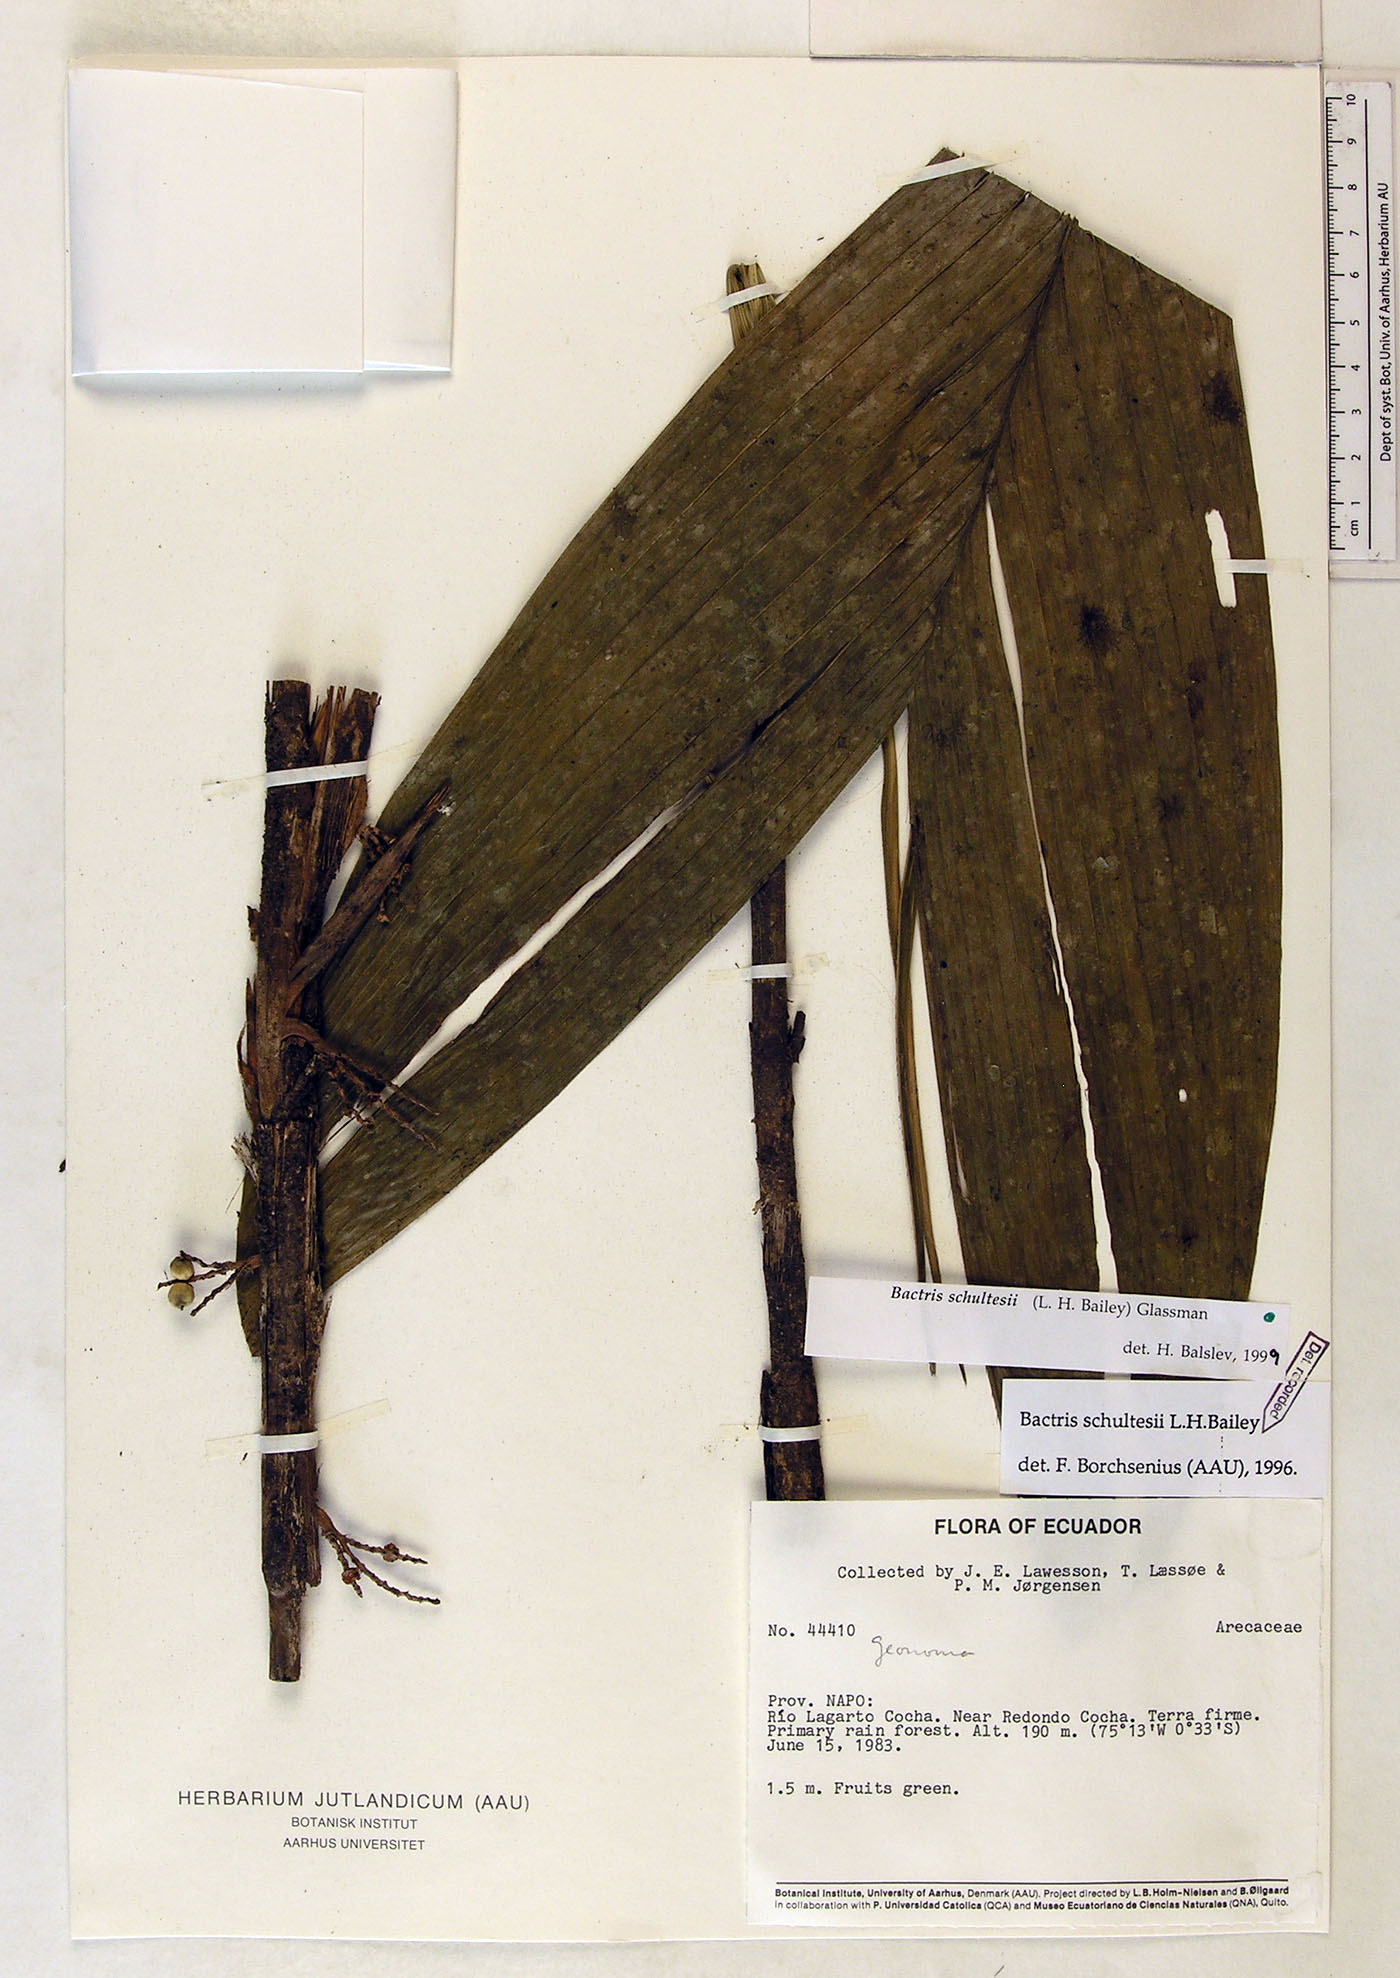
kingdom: Plantae
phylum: Tracheophyta
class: Liliopsida
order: Arecales
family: Arecaceae
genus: Bactris
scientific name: Bactris schultesii
